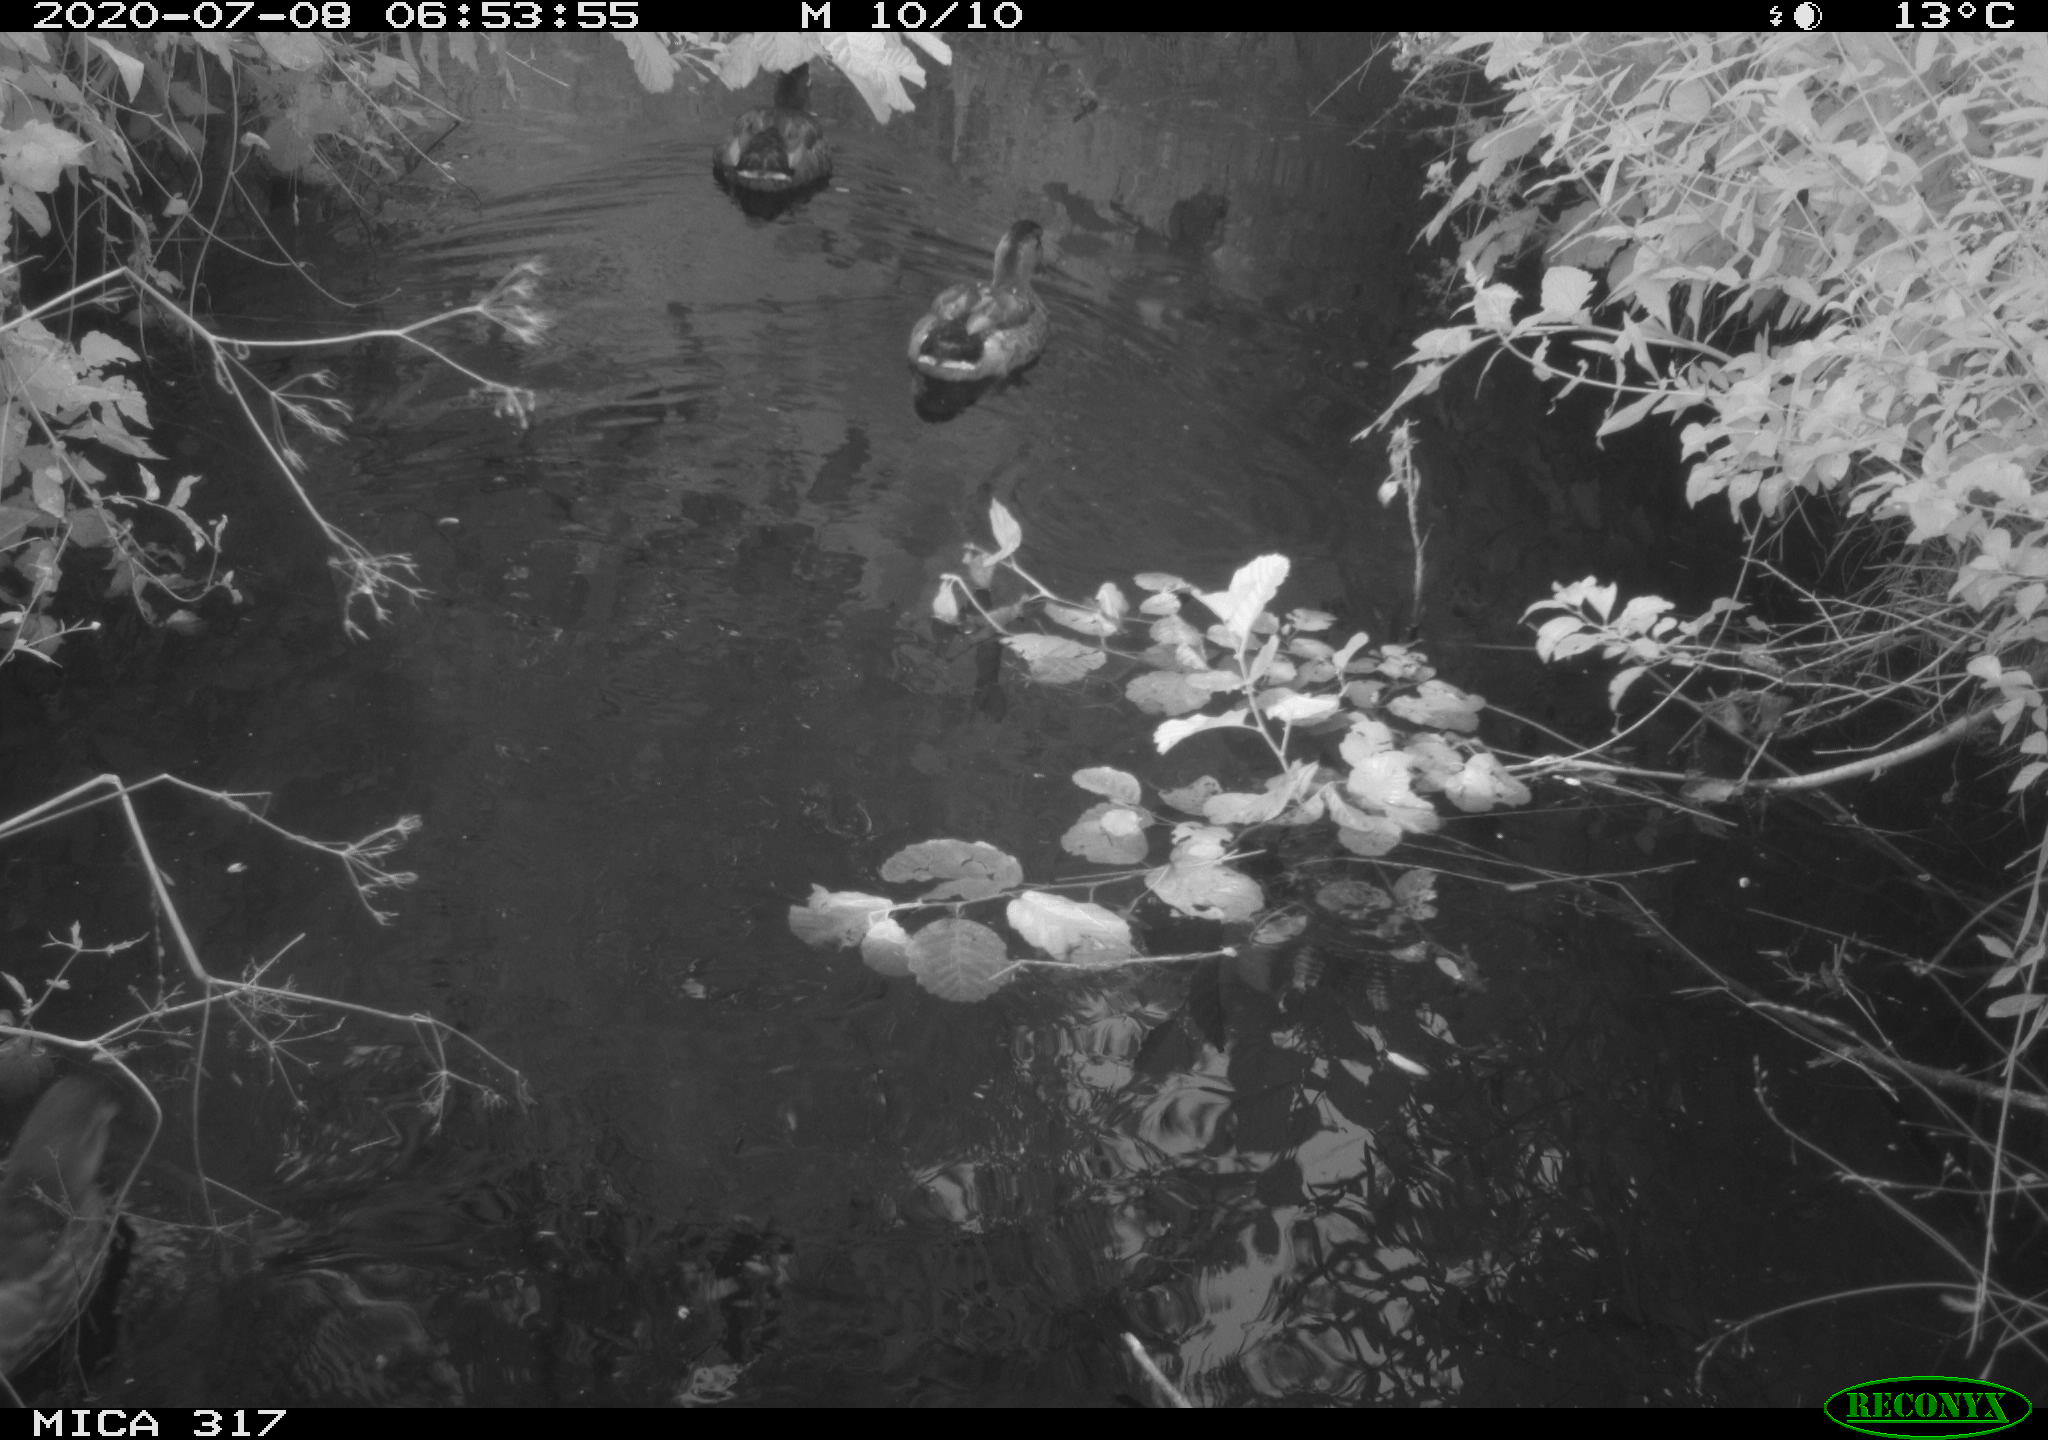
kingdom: Animalia
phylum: Chordata
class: Aves
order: Anseriformes
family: Anatidae
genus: Anas
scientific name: Anas platyrhynchos
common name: Mallard
